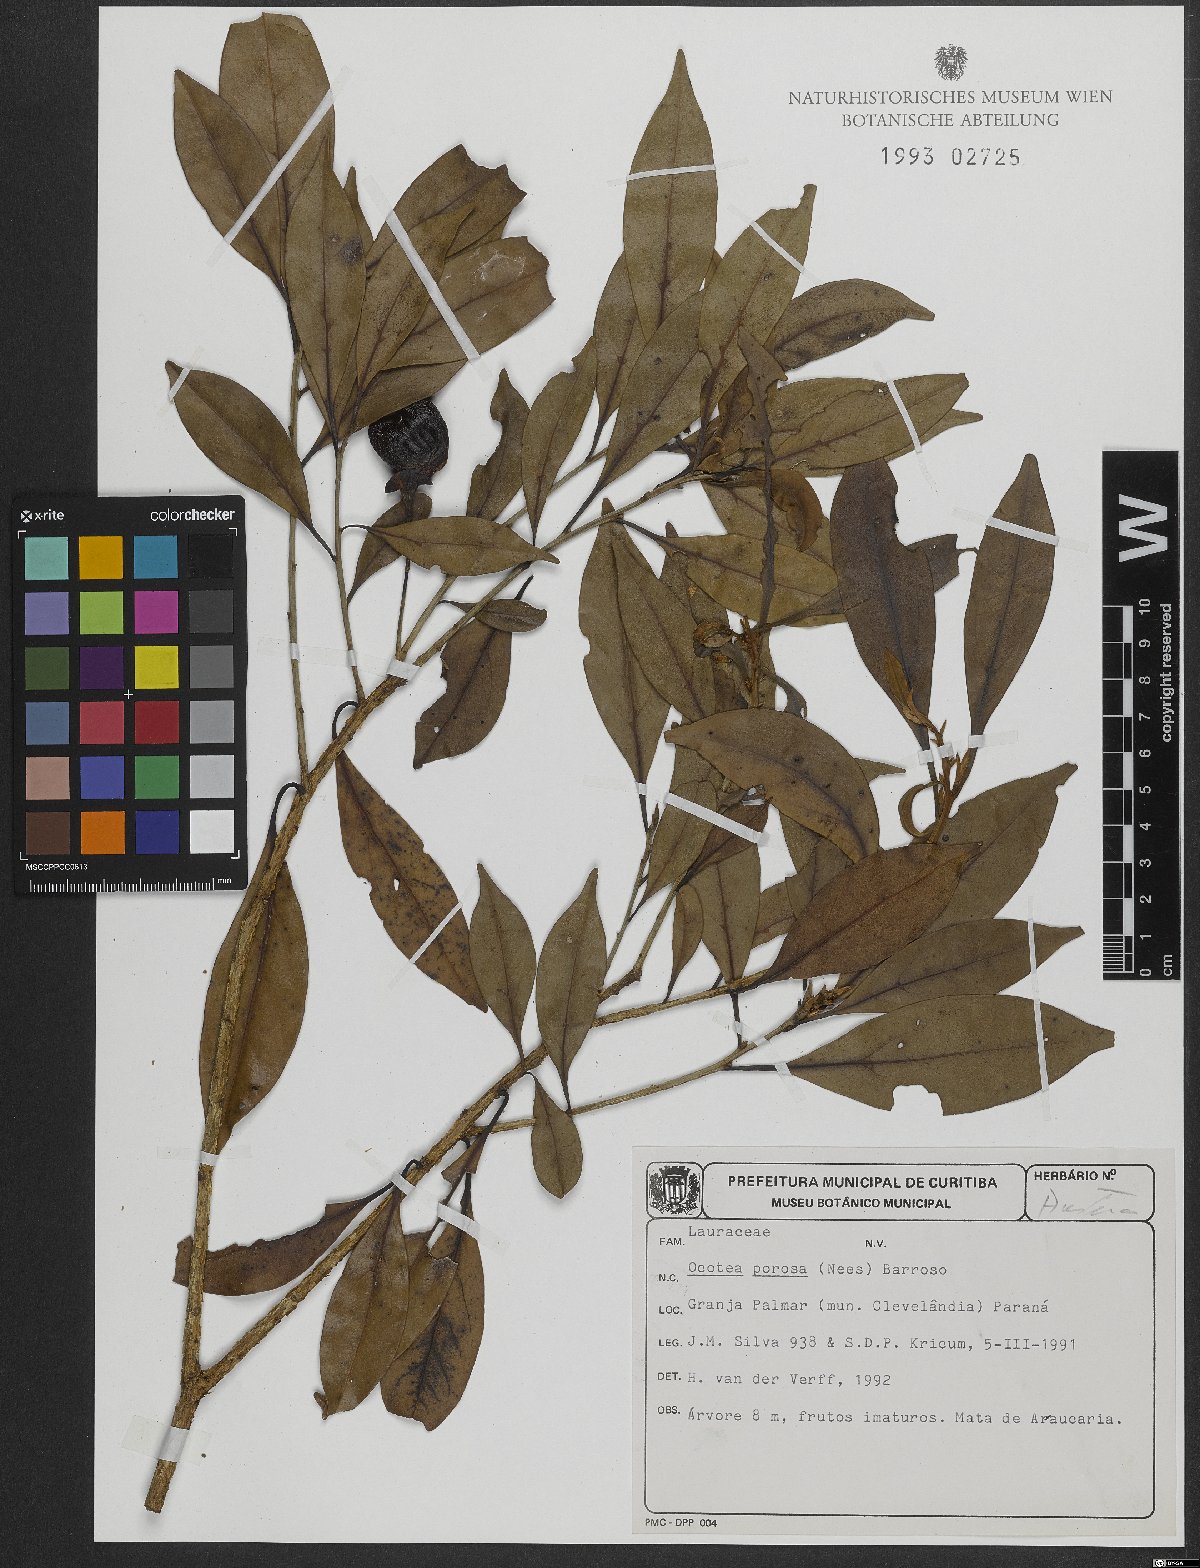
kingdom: Plantae
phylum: Tracheophyta
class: Magnoliopsida
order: Laurales
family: Lauraceae
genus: Ocotea
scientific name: Ocotea porosa
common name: Brazilian-walnut
